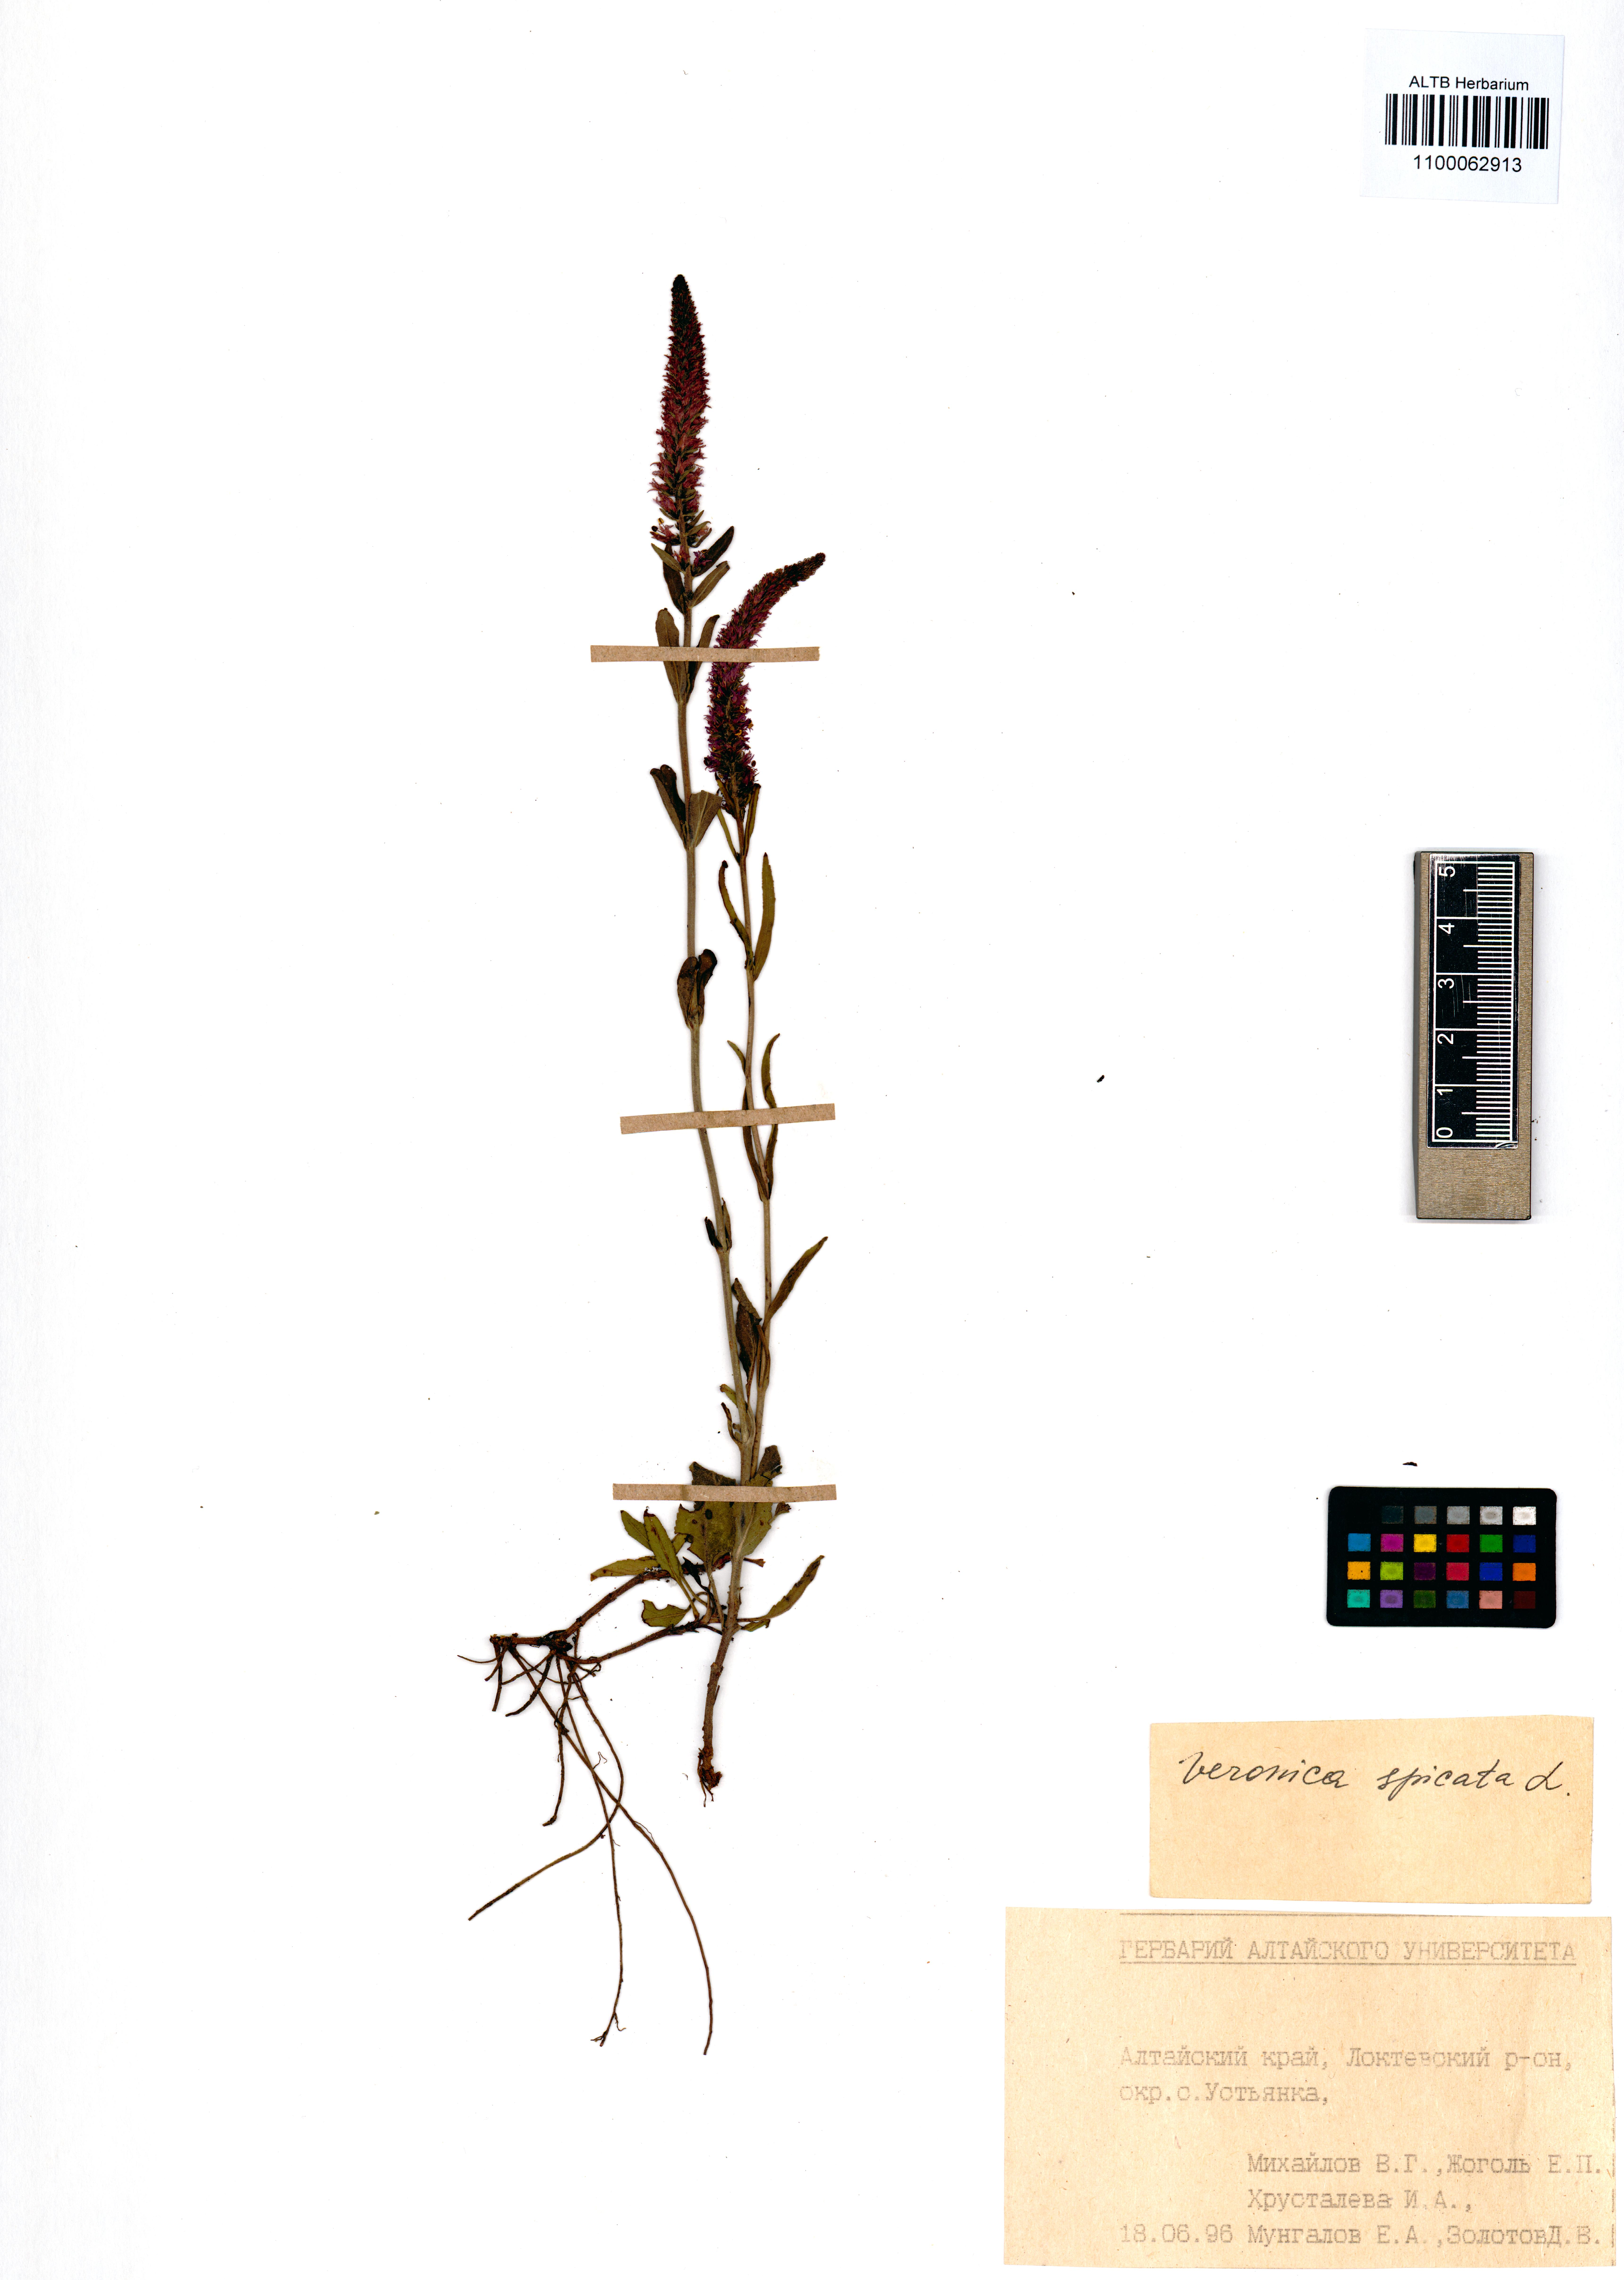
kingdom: Plantae
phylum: Tracheophyta
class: Magnoliopsida
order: Lamiales
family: Plantaginaceae
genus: Veronica
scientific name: Veronica spicata
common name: Spiked speedwell
